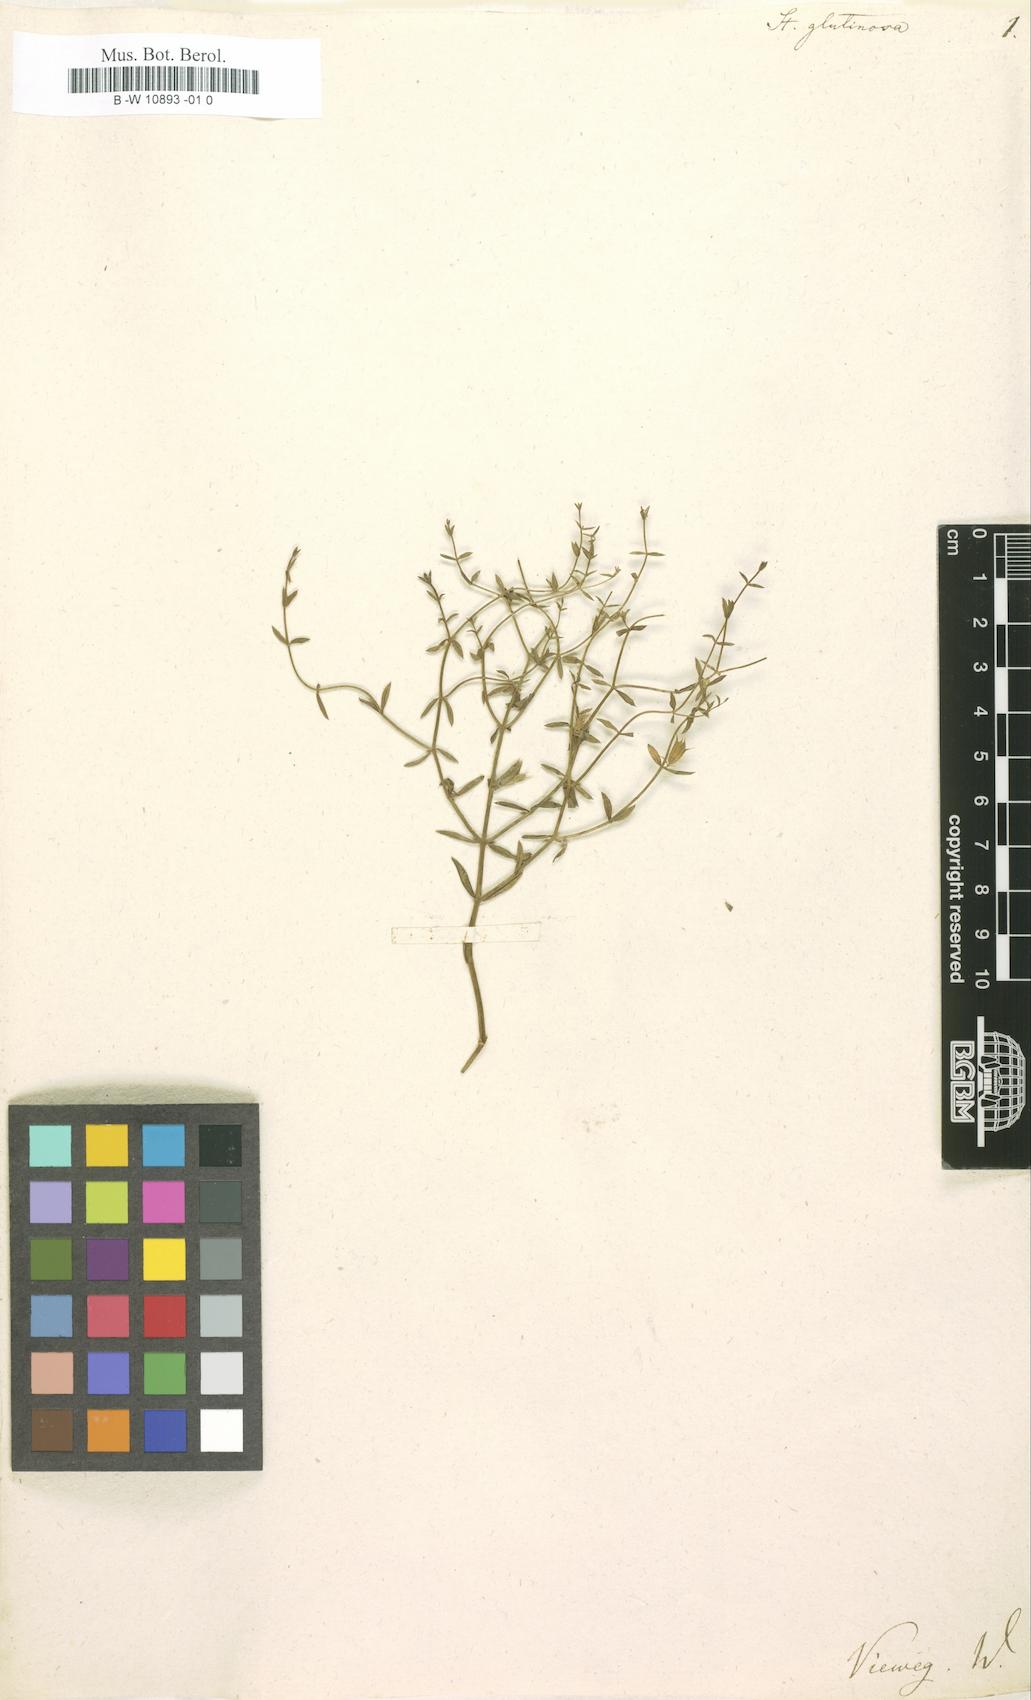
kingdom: Plantae
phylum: Tracheophyta
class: Magnoliopsida
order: Lamiales
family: Lamiaceae
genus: Stachys
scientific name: Stachys glutinosa
